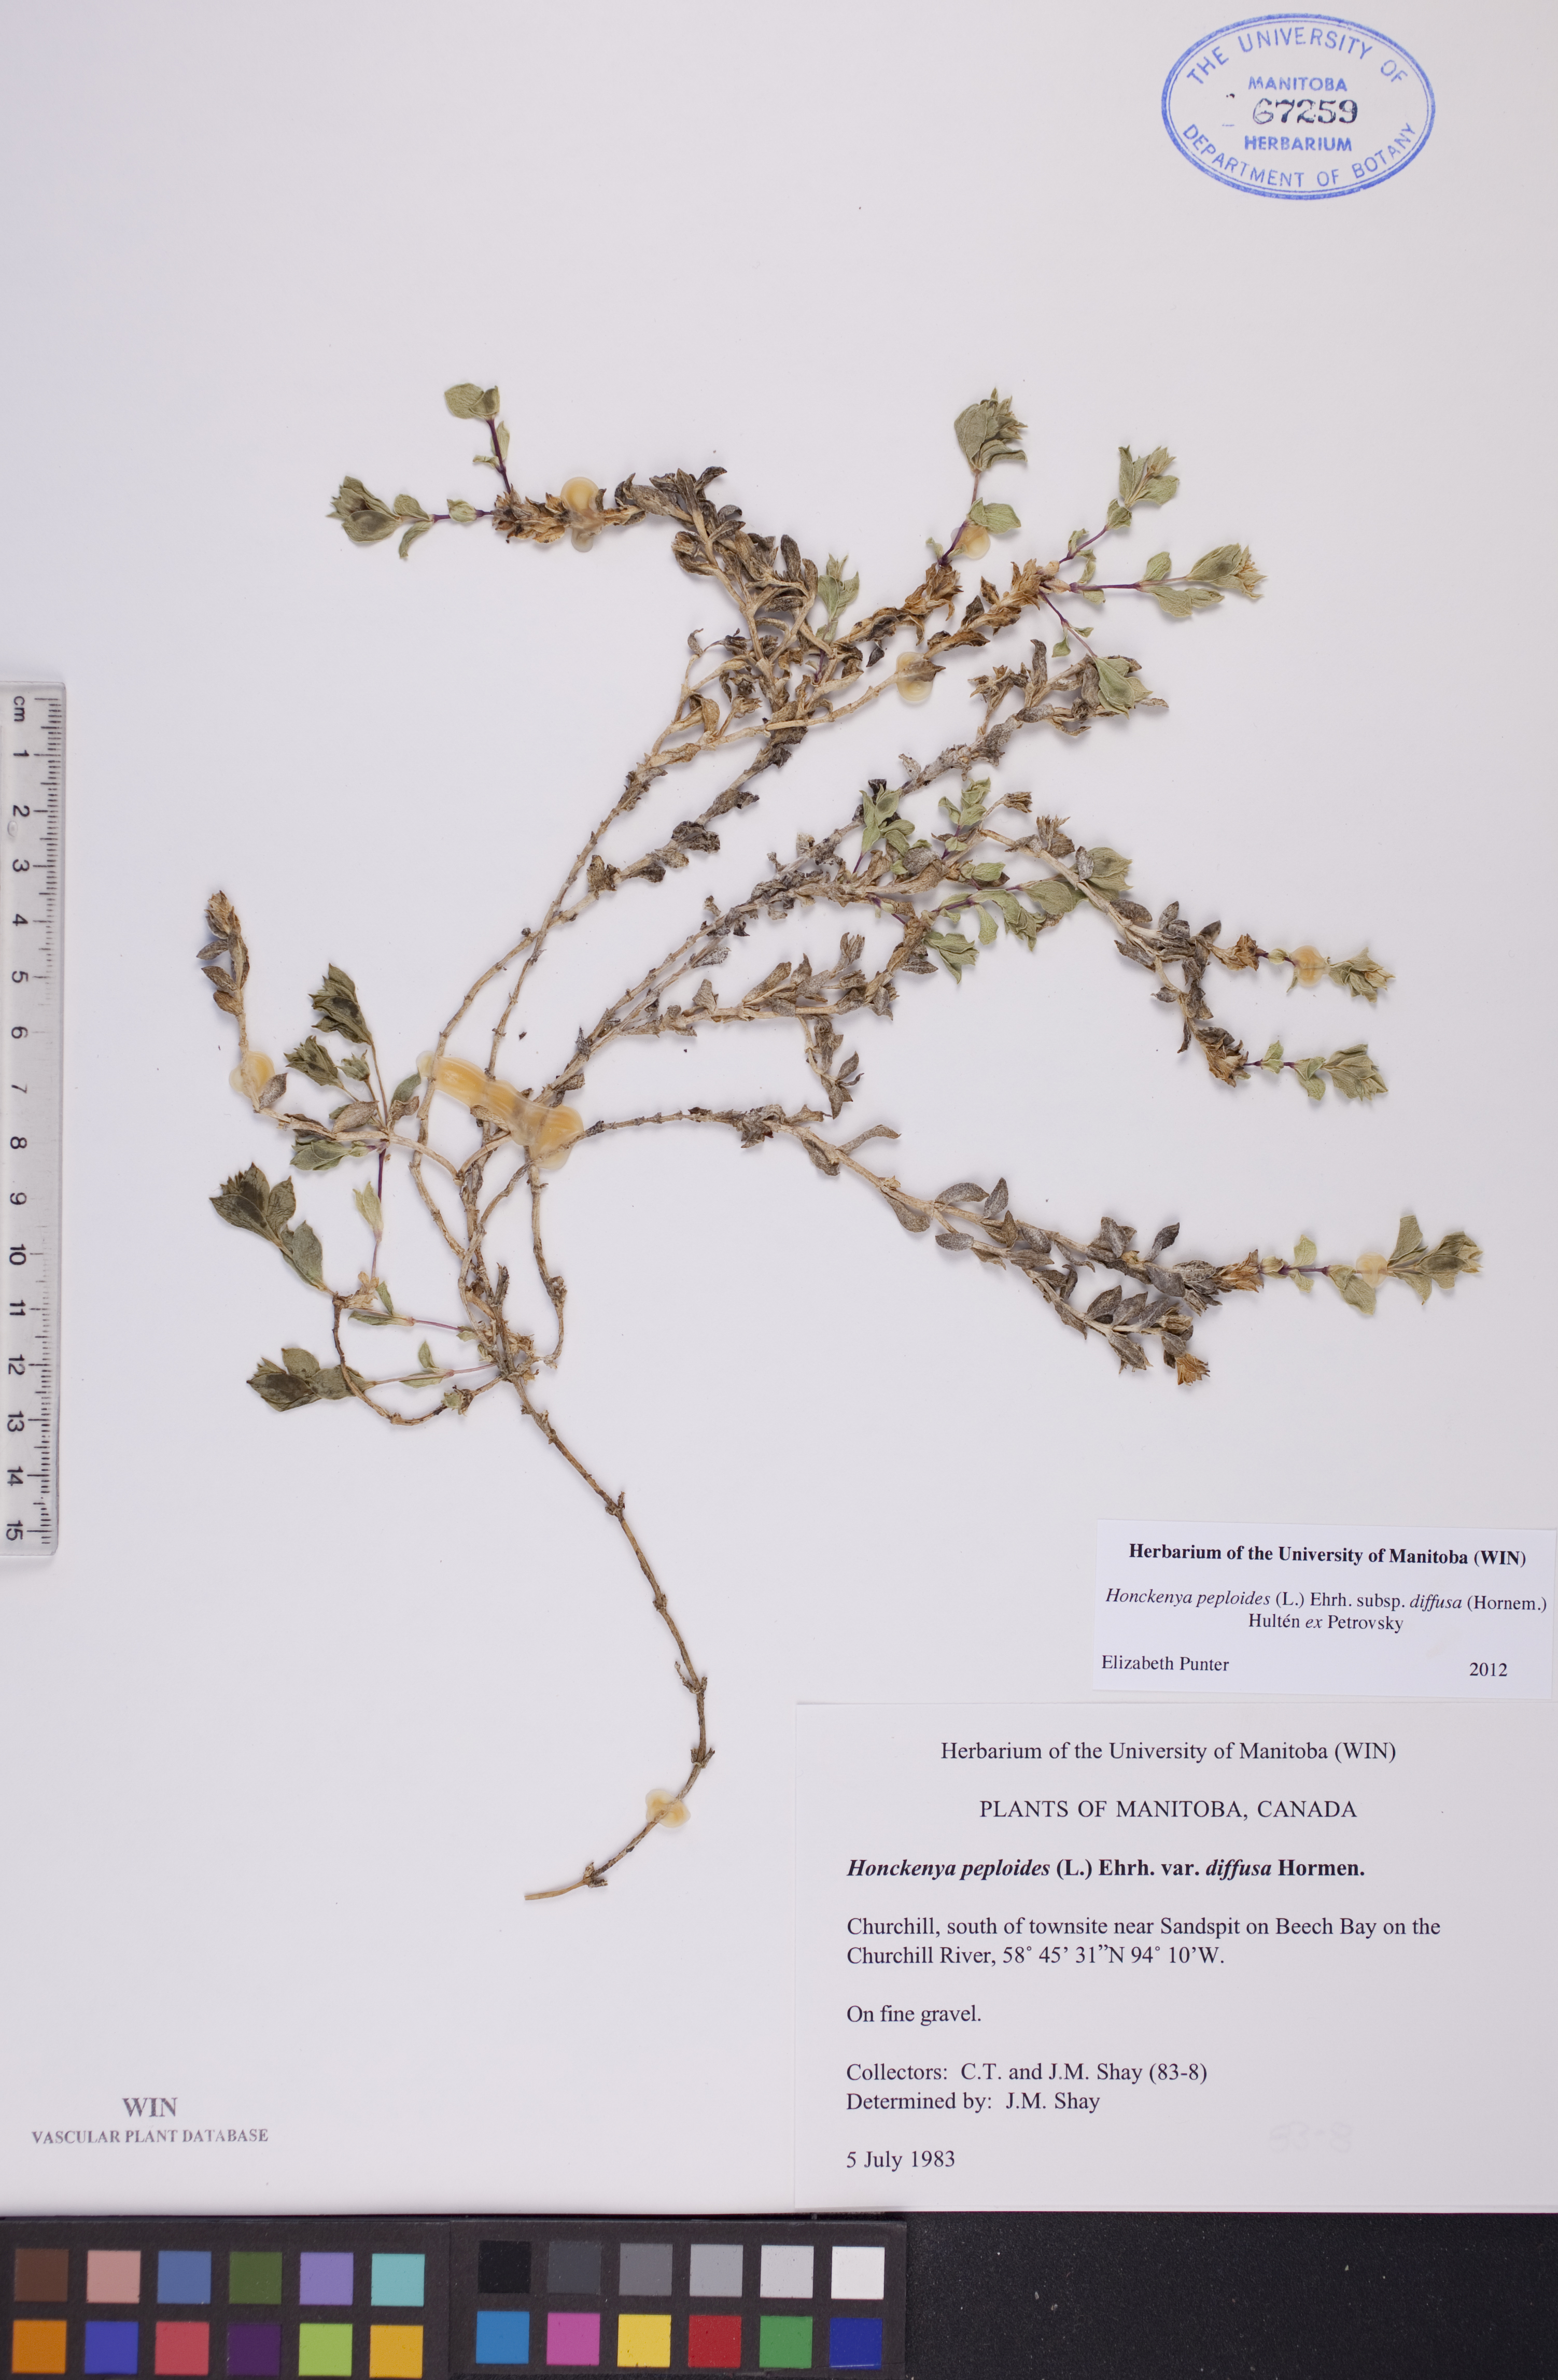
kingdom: Plantae
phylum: Tracheophyta
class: Magnoliopsida
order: Caryophyllales
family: Caryophyllaceae
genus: Honckenya
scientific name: Honckenya peploides
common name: Sea sandwort
